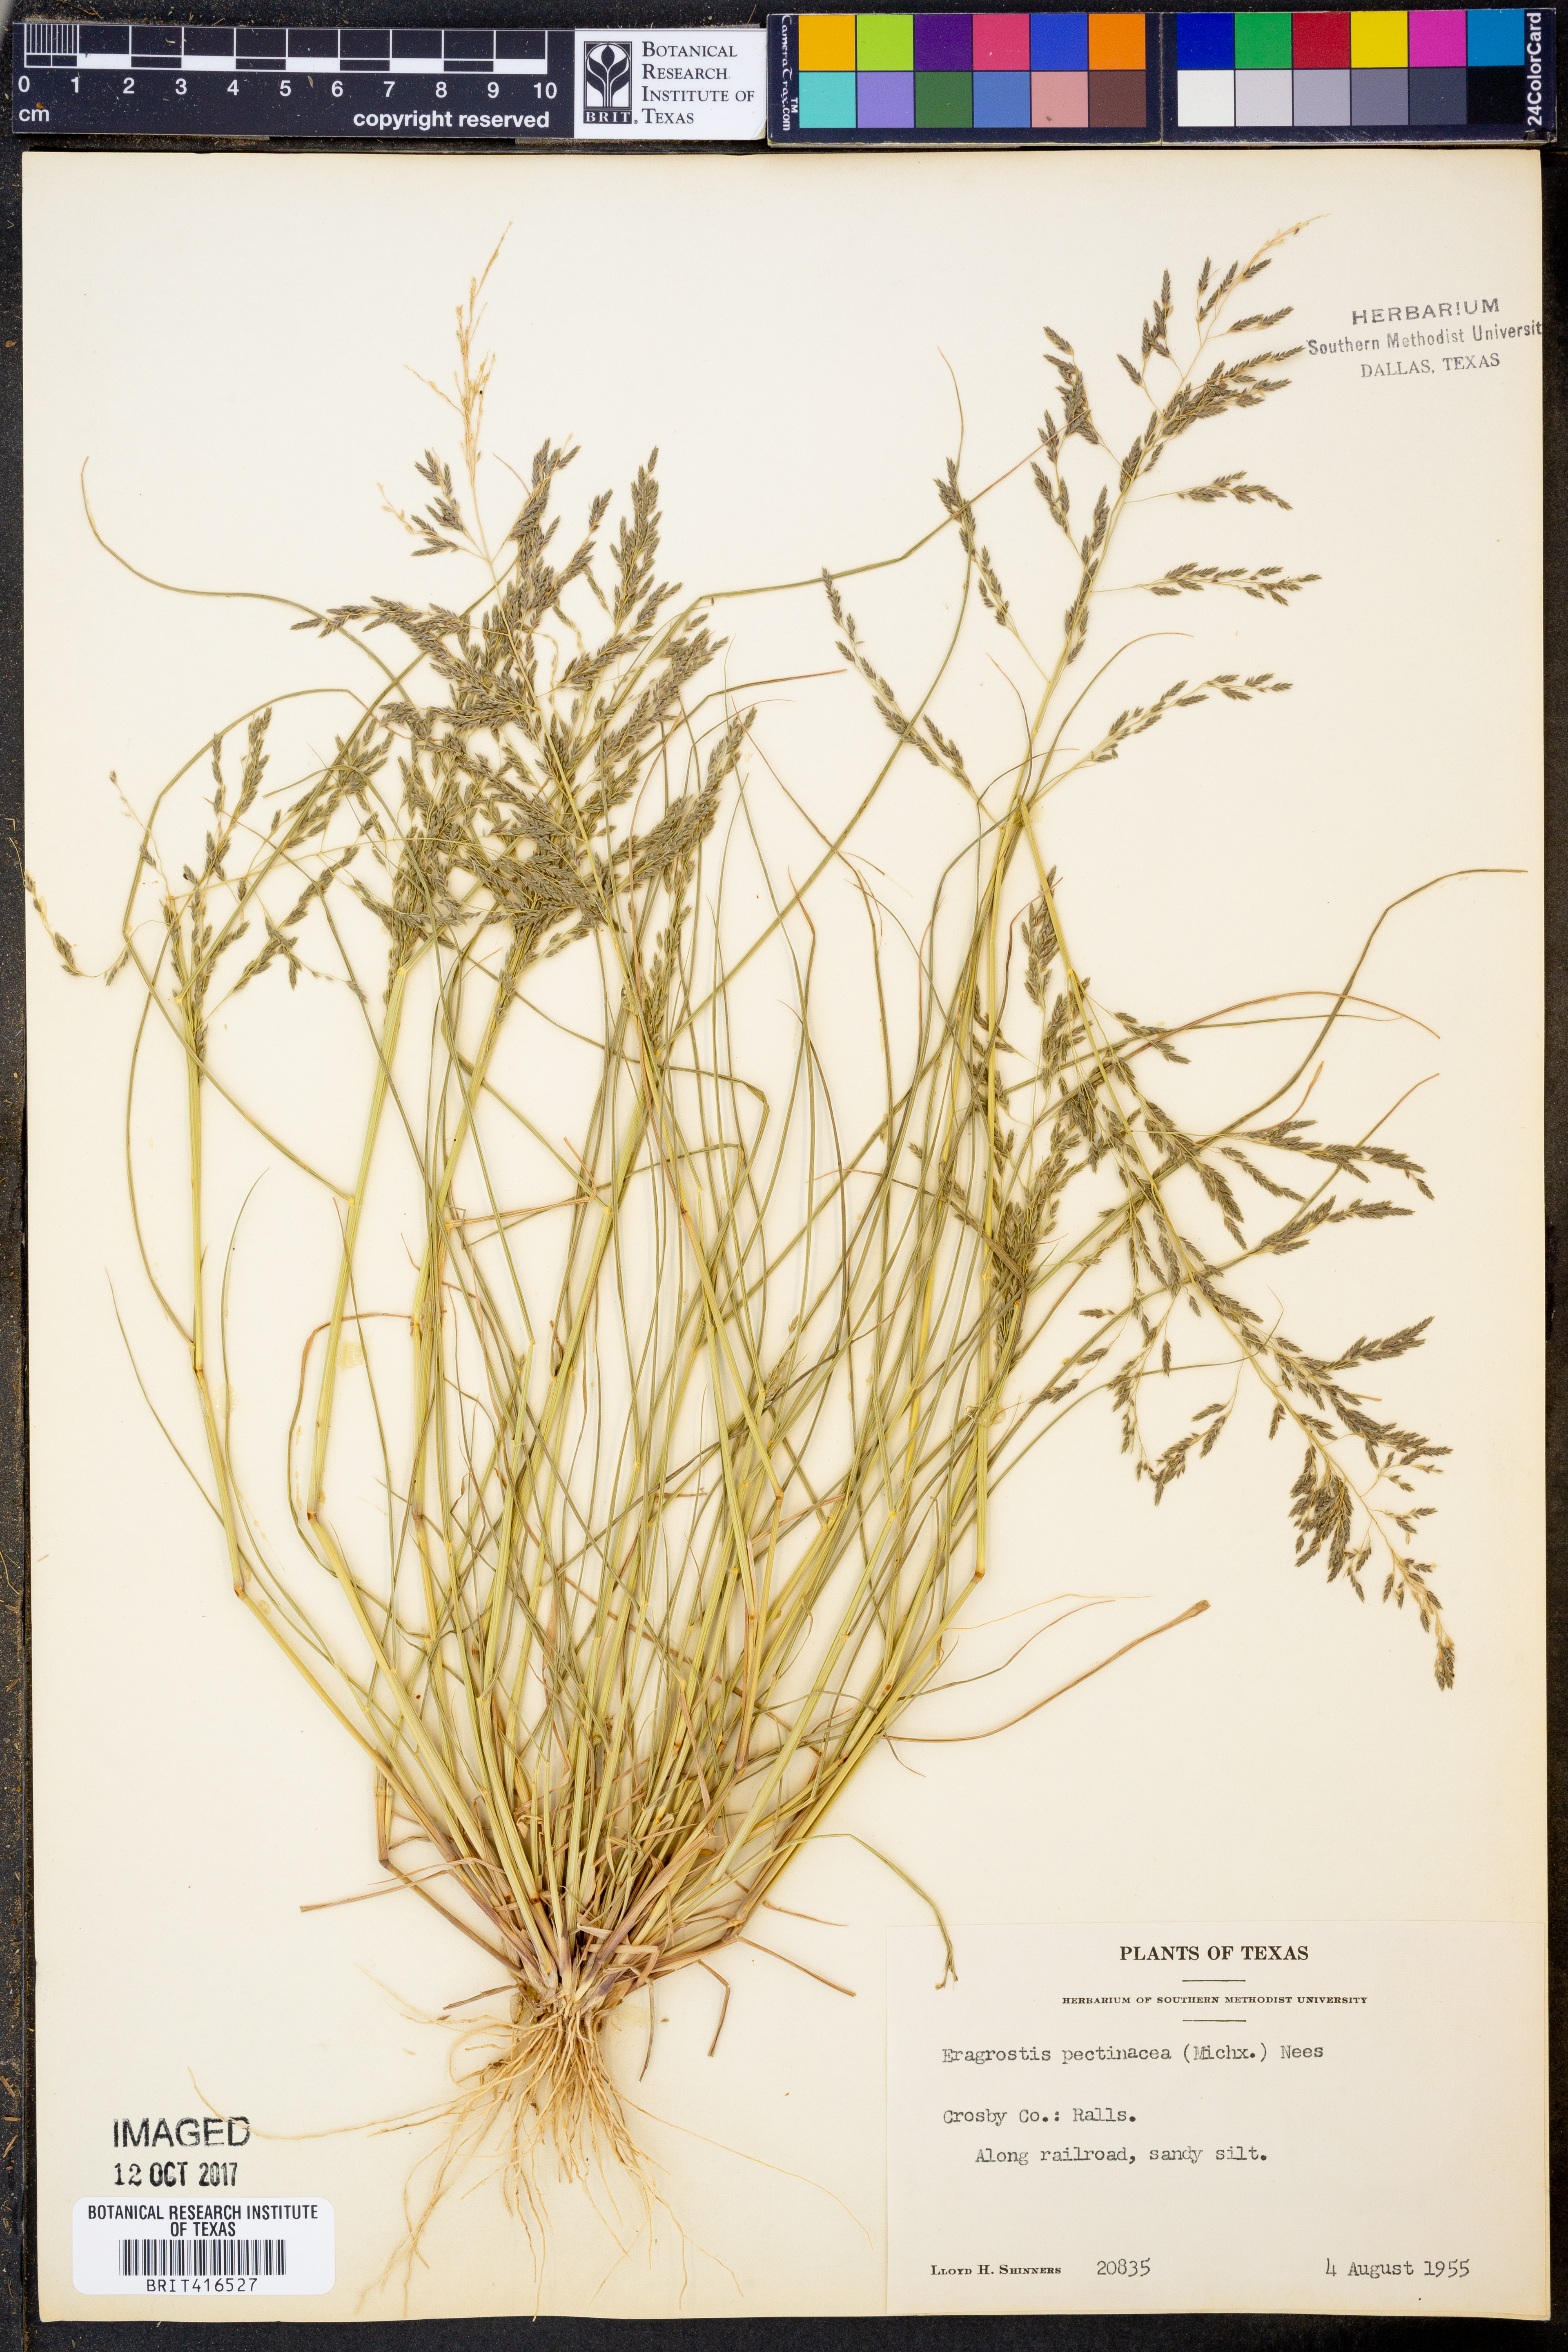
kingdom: Plantae
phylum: Tracheophyta
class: Liliopsida
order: Poales
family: Poaceae
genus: Eragrostis
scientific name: Eragrostis pectinacea
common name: Tufted lovegrass
